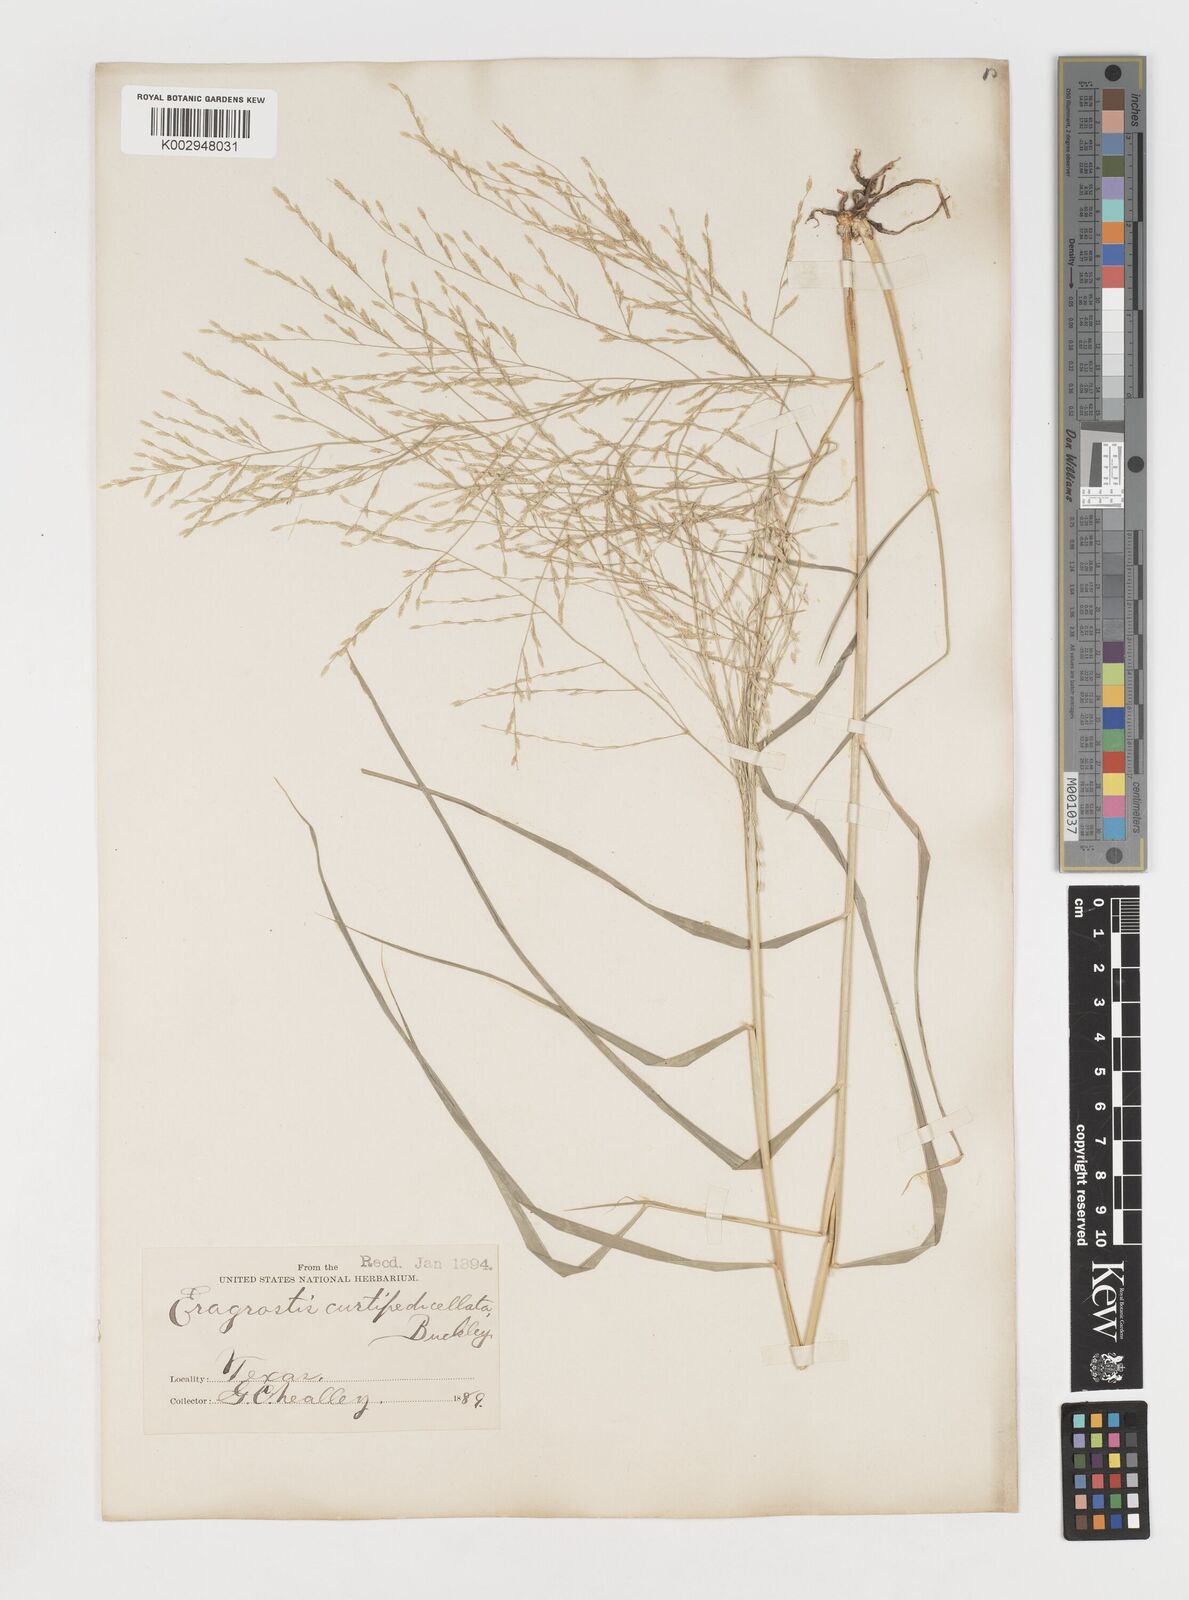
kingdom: Plantae
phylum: Tracheophyta
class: Liliopsida
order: Poales
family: Poaceae
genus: Eragrostis
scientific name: Eragrostis curtipedicellata
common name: Gummy love grass
